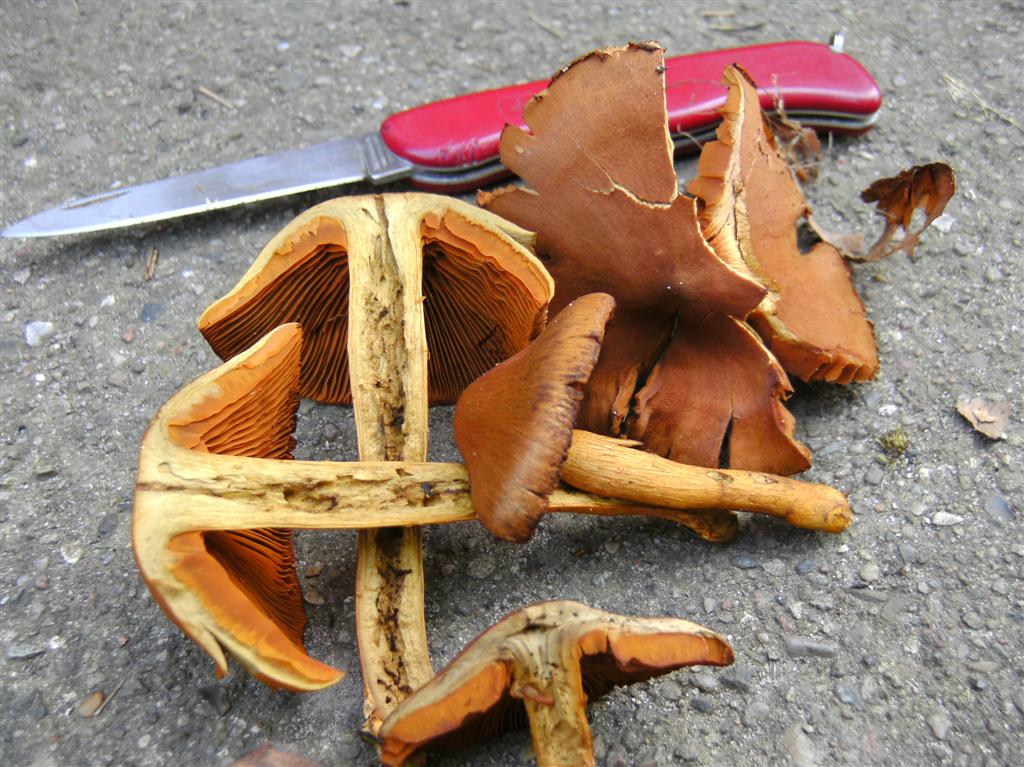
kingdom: Fungi
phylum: Basidiomycota
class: Agaricomycetes
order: Agaricales
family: Cortinariaceae
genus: Cortinarius
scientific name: Cortinarius cinnamomeus
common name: kanel-slørhat
